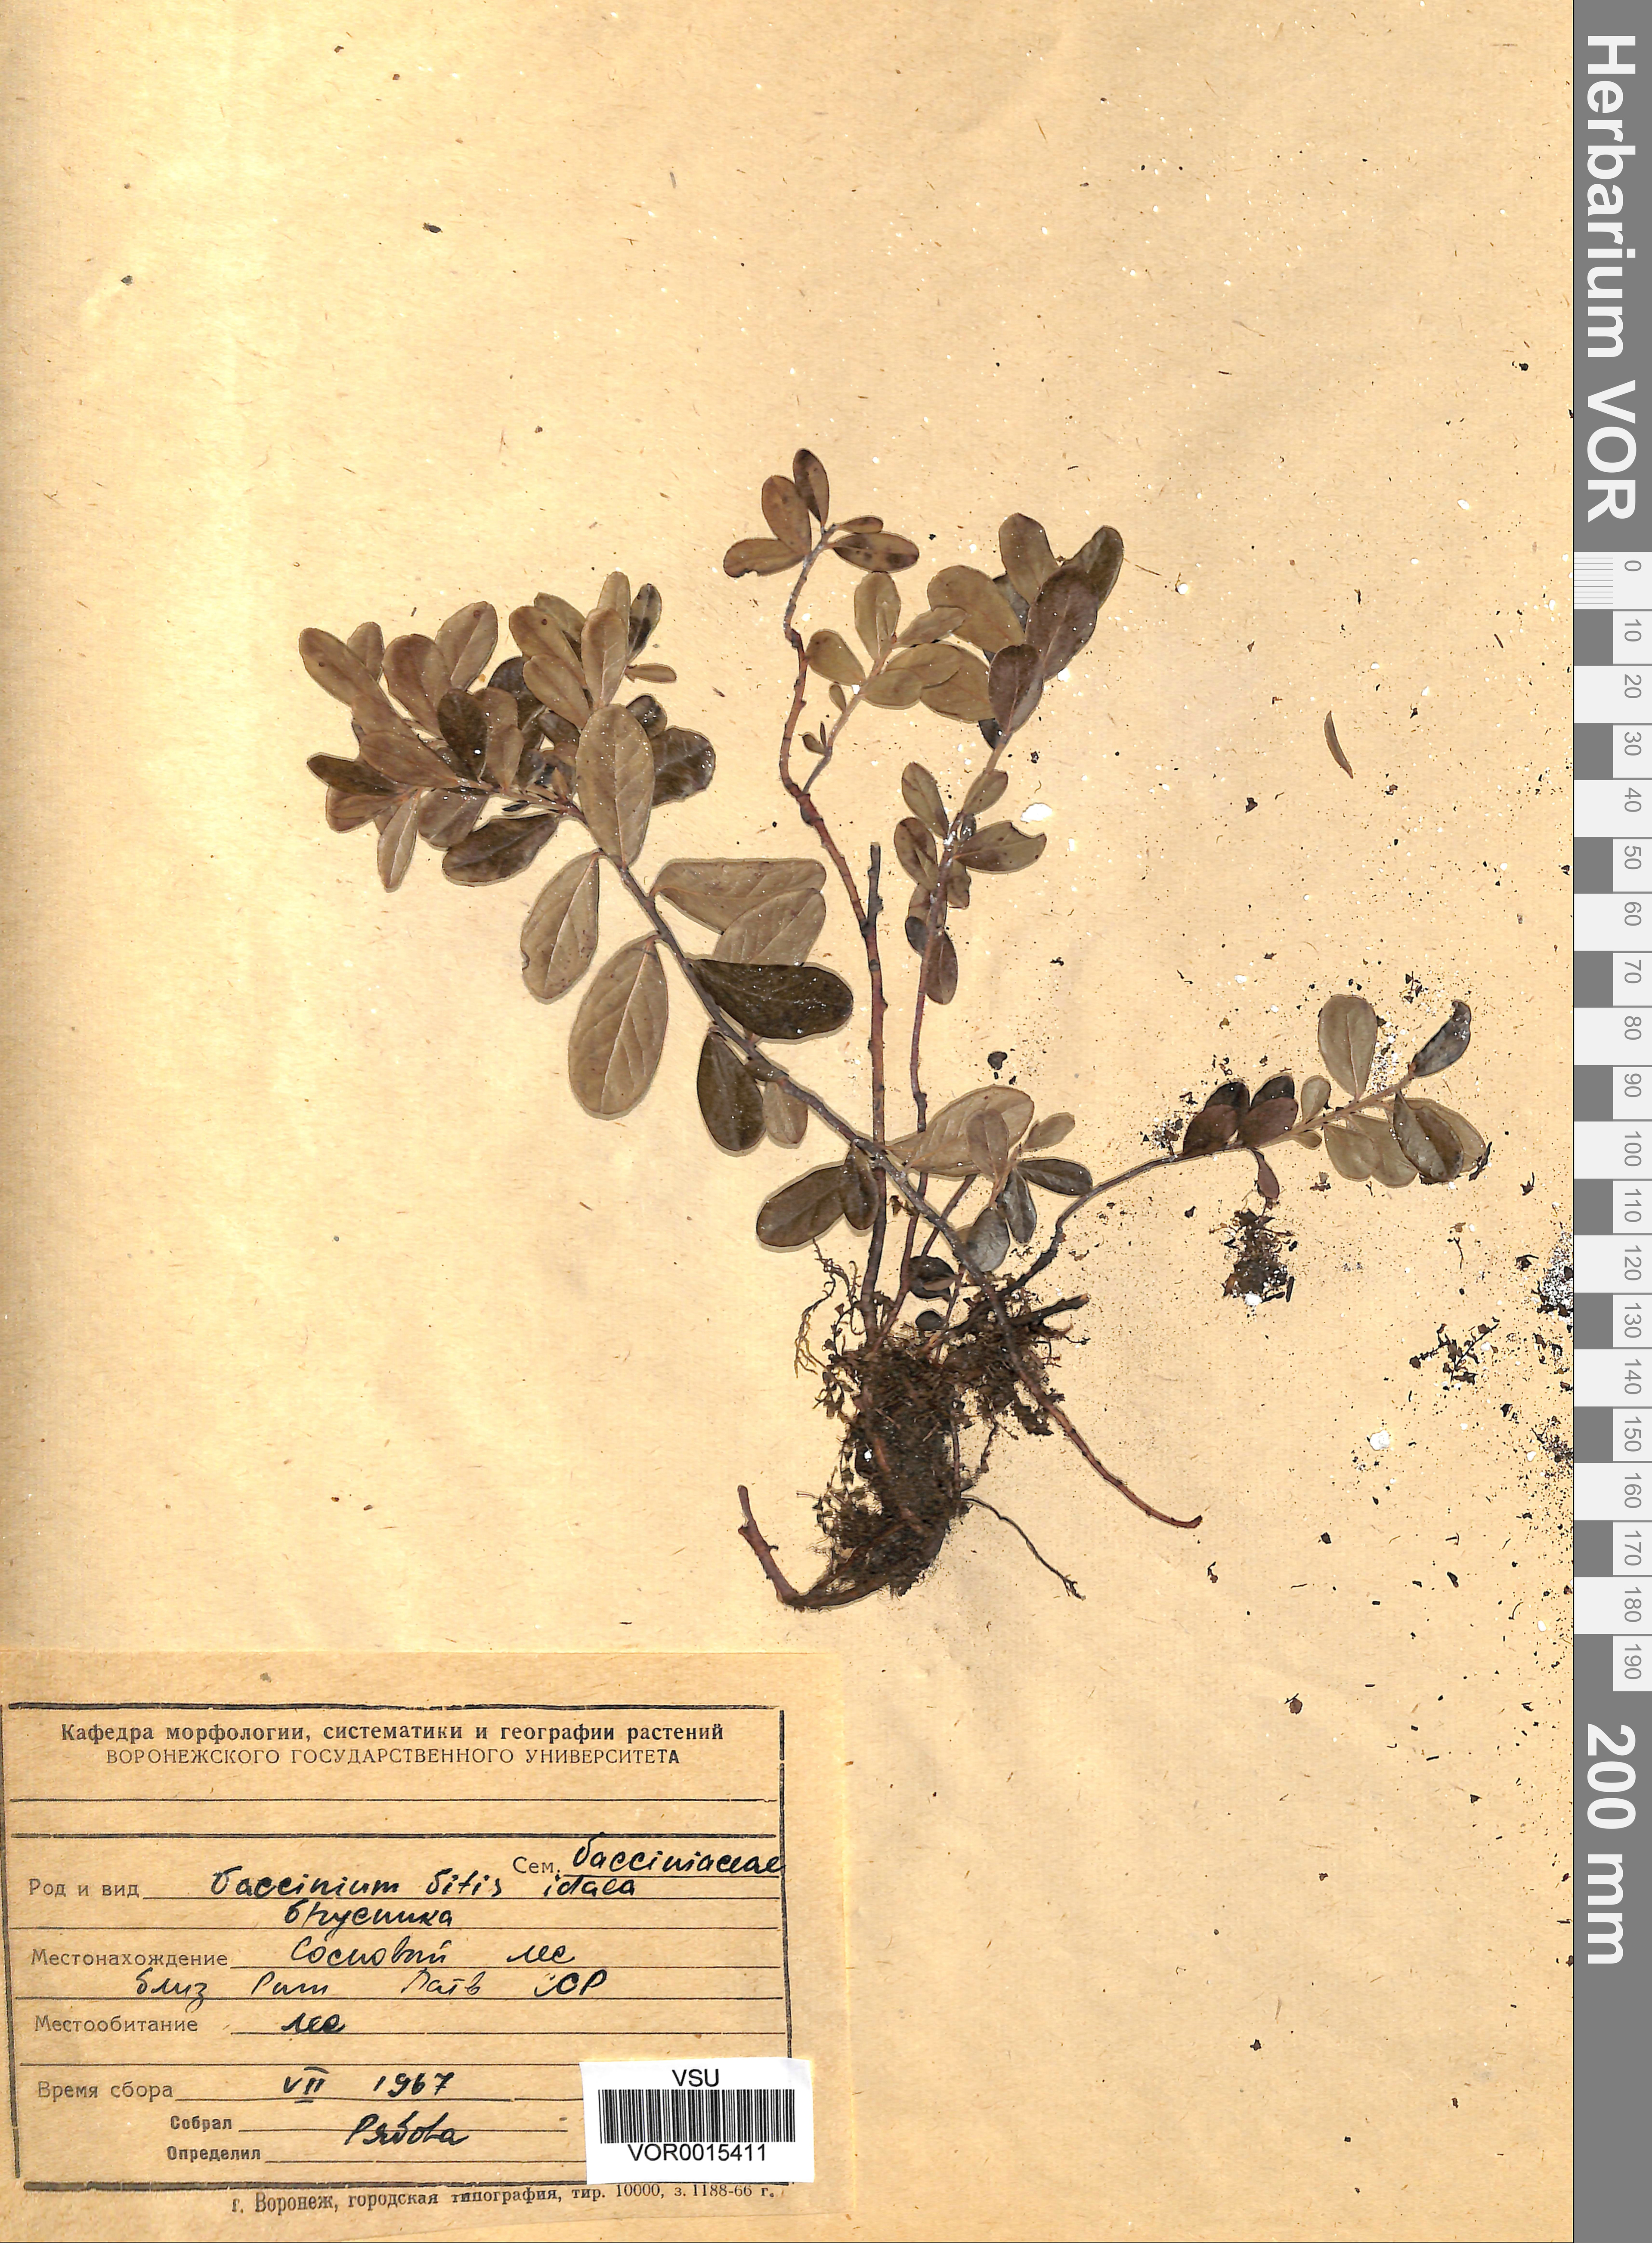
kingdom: Plantae
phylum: Tracheophyta
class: Magnoliopsida
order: Ericales
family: Ericaceae
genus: Vaccinium
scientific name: Vaccinium vitis-idaea
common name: Cowberry
